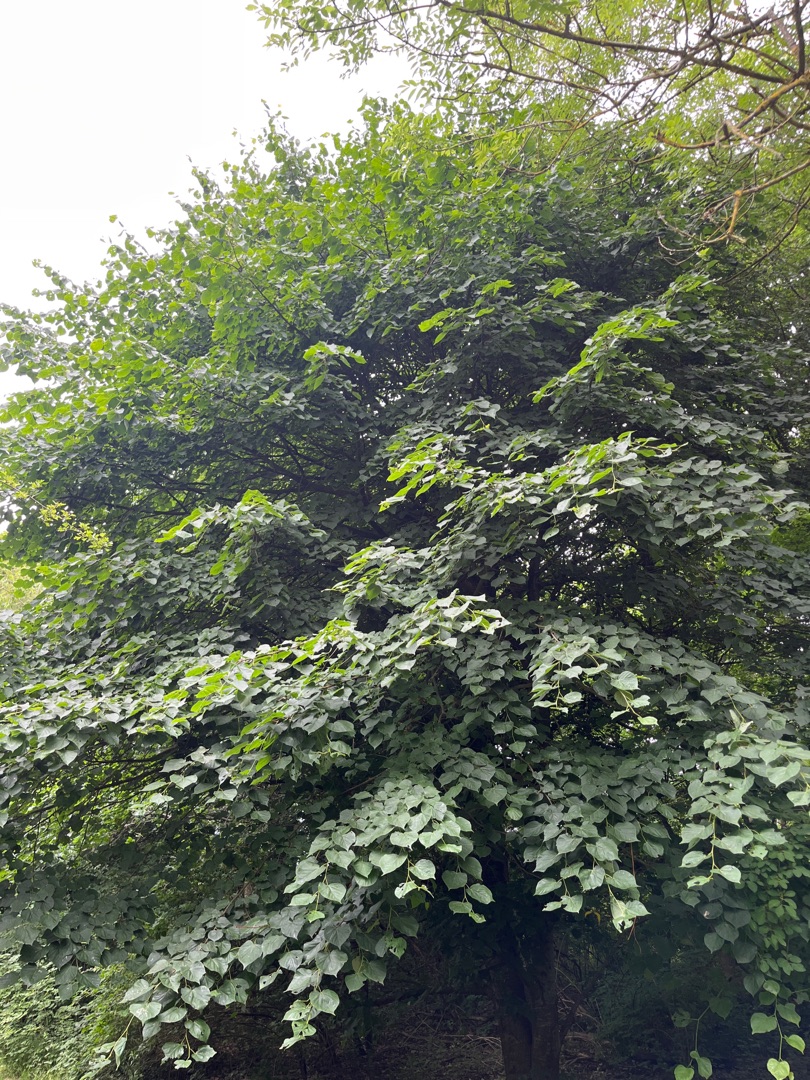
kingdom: Plantae
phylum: Tracheophyta
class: Magnoliopsida
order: Malvales
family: Malvaceae
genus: Tilia
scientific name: Tilia
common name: Lindeslægten
